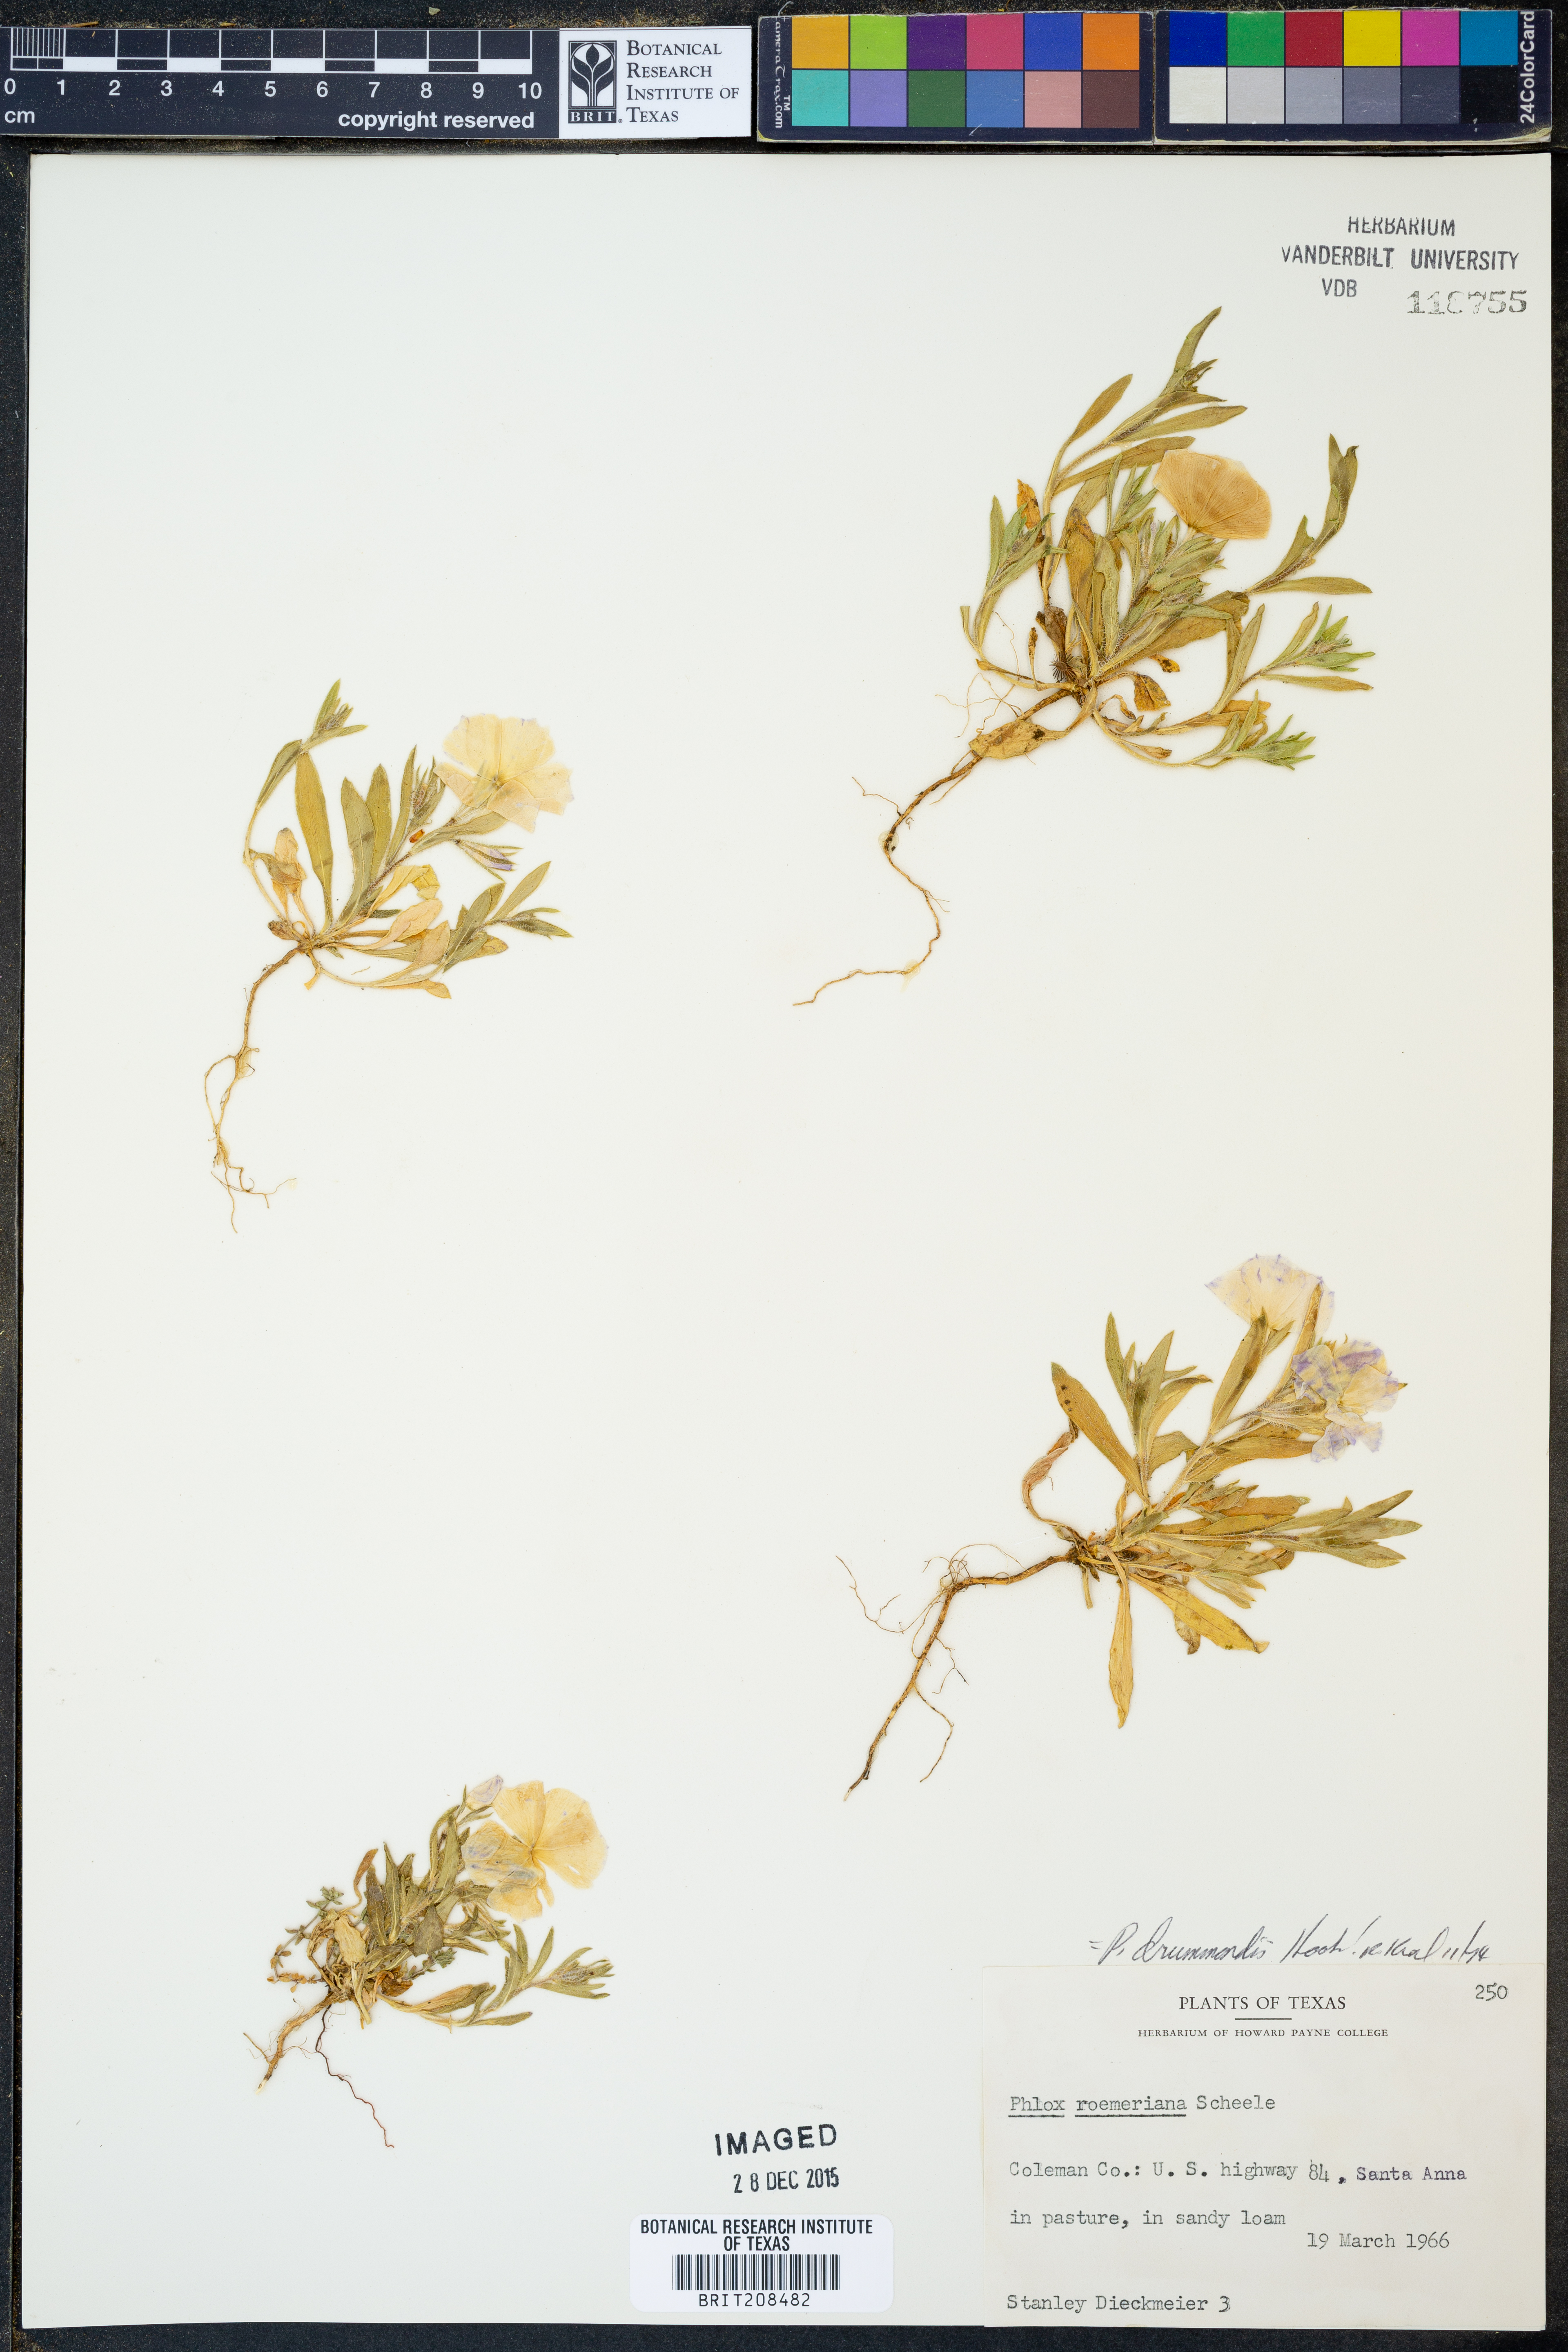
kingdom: Plantae
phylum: Tracheophyta
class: Magnoliopsida
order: Ericales
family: Polemoniaceae
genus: Phlox
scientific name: Phlox drummondii
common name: Drummond's phlox
